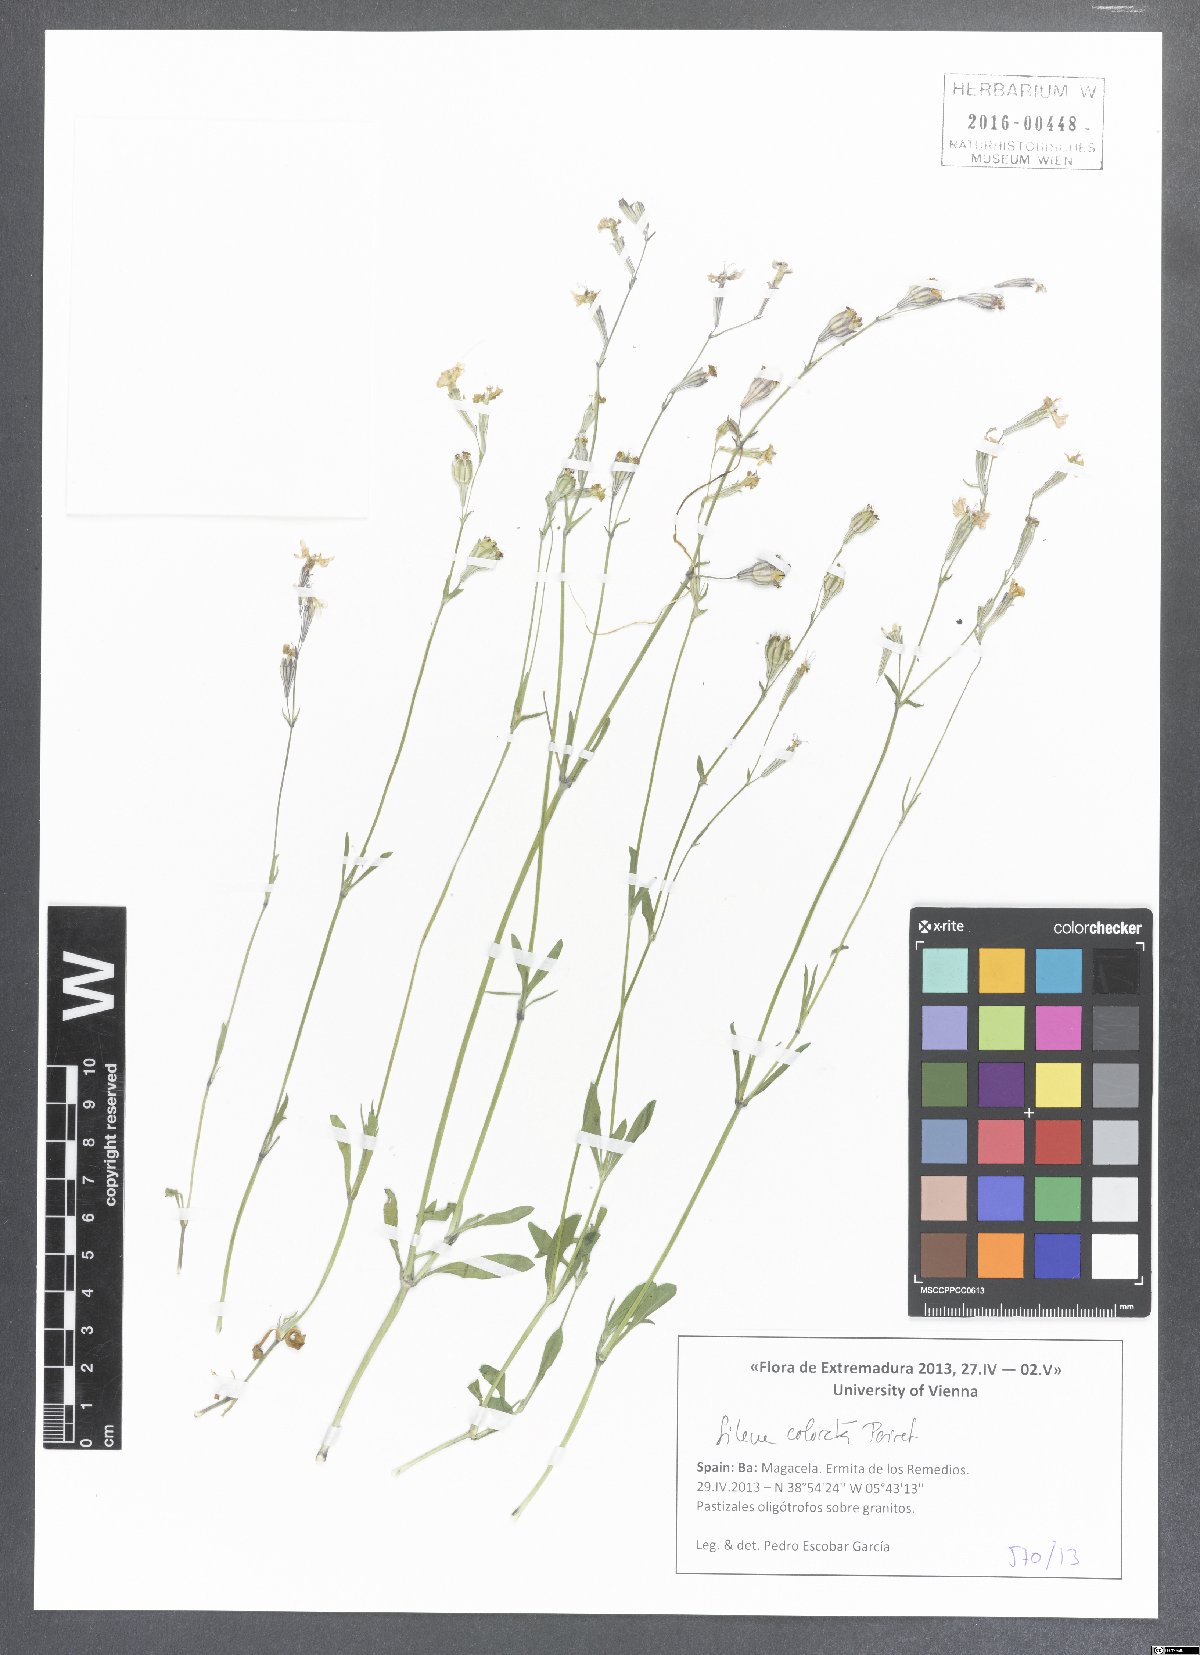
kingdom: Plantae
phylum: Tracheophyta
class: Magnoliopsida
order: Caryophyllales
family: Caryophyllaceae
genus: Silene
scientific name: Silene colorata
